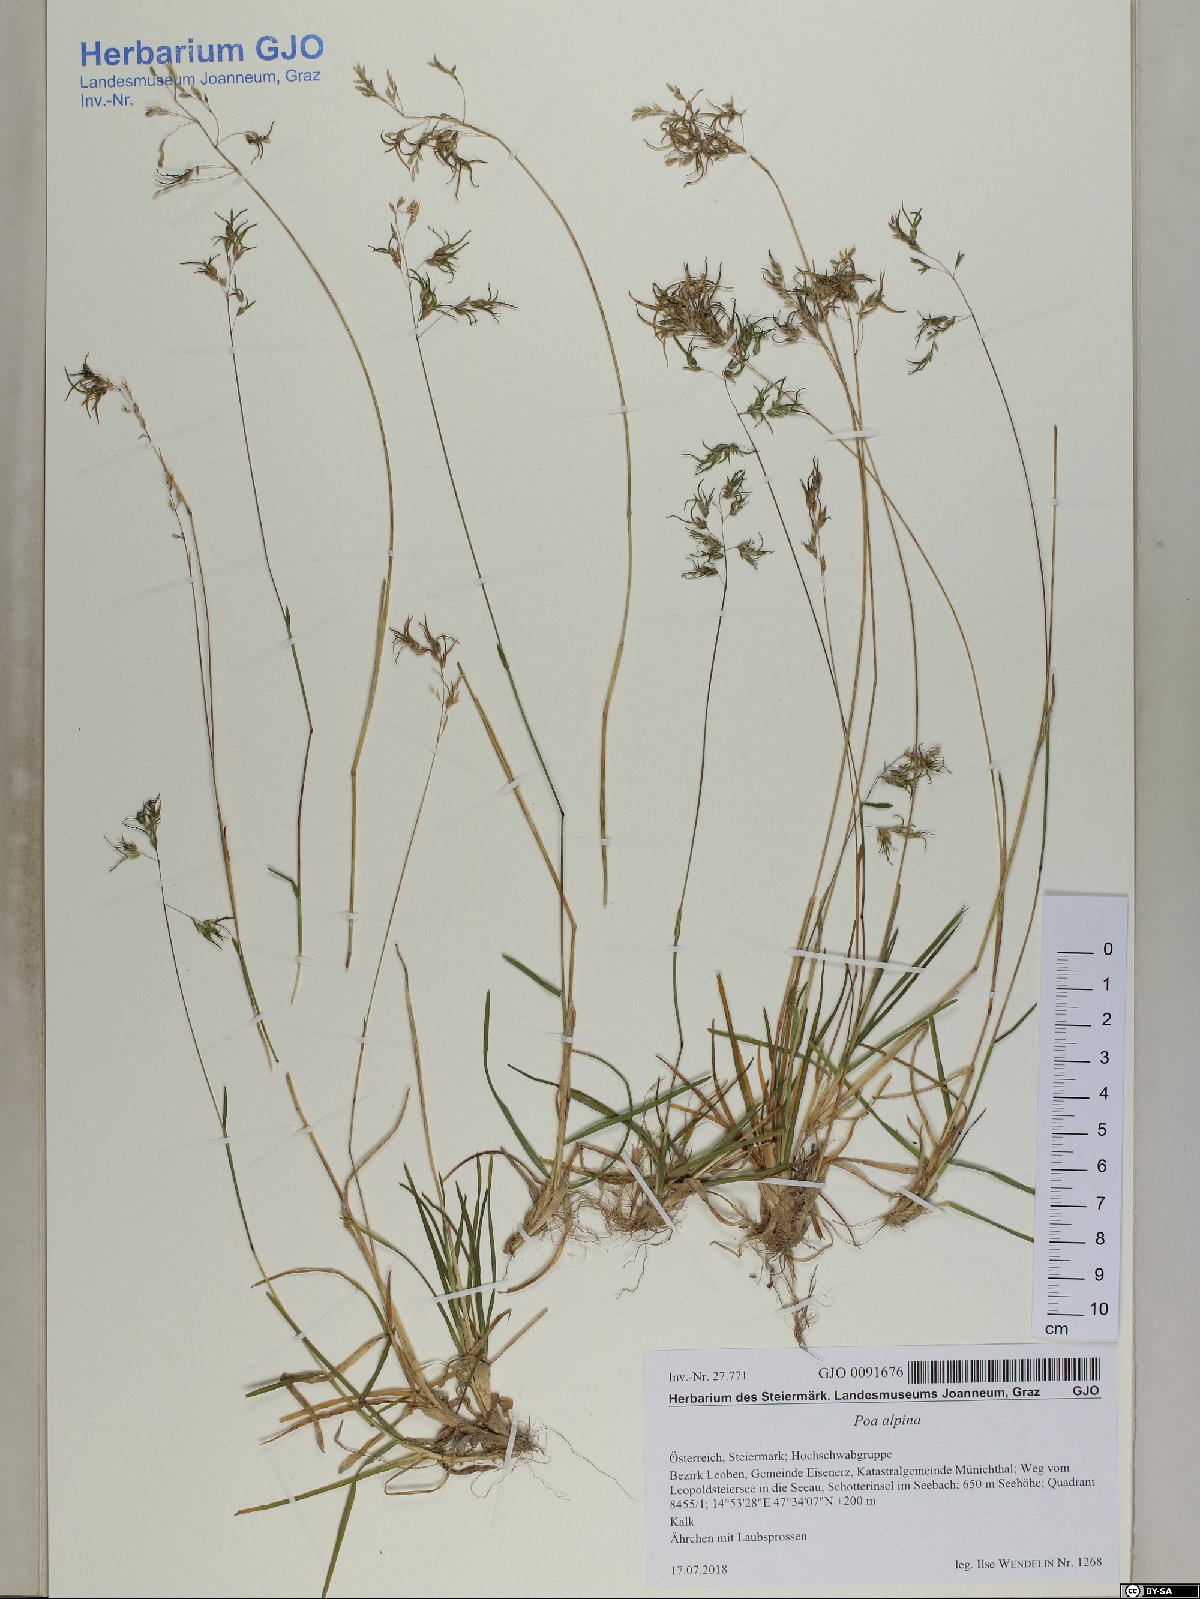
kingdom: Plantae
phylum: Tracheophyta
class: Liliopsida
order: Poales
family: Poaceae
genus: Poa
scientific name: Poa alpina
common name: Alpine bluegrass
